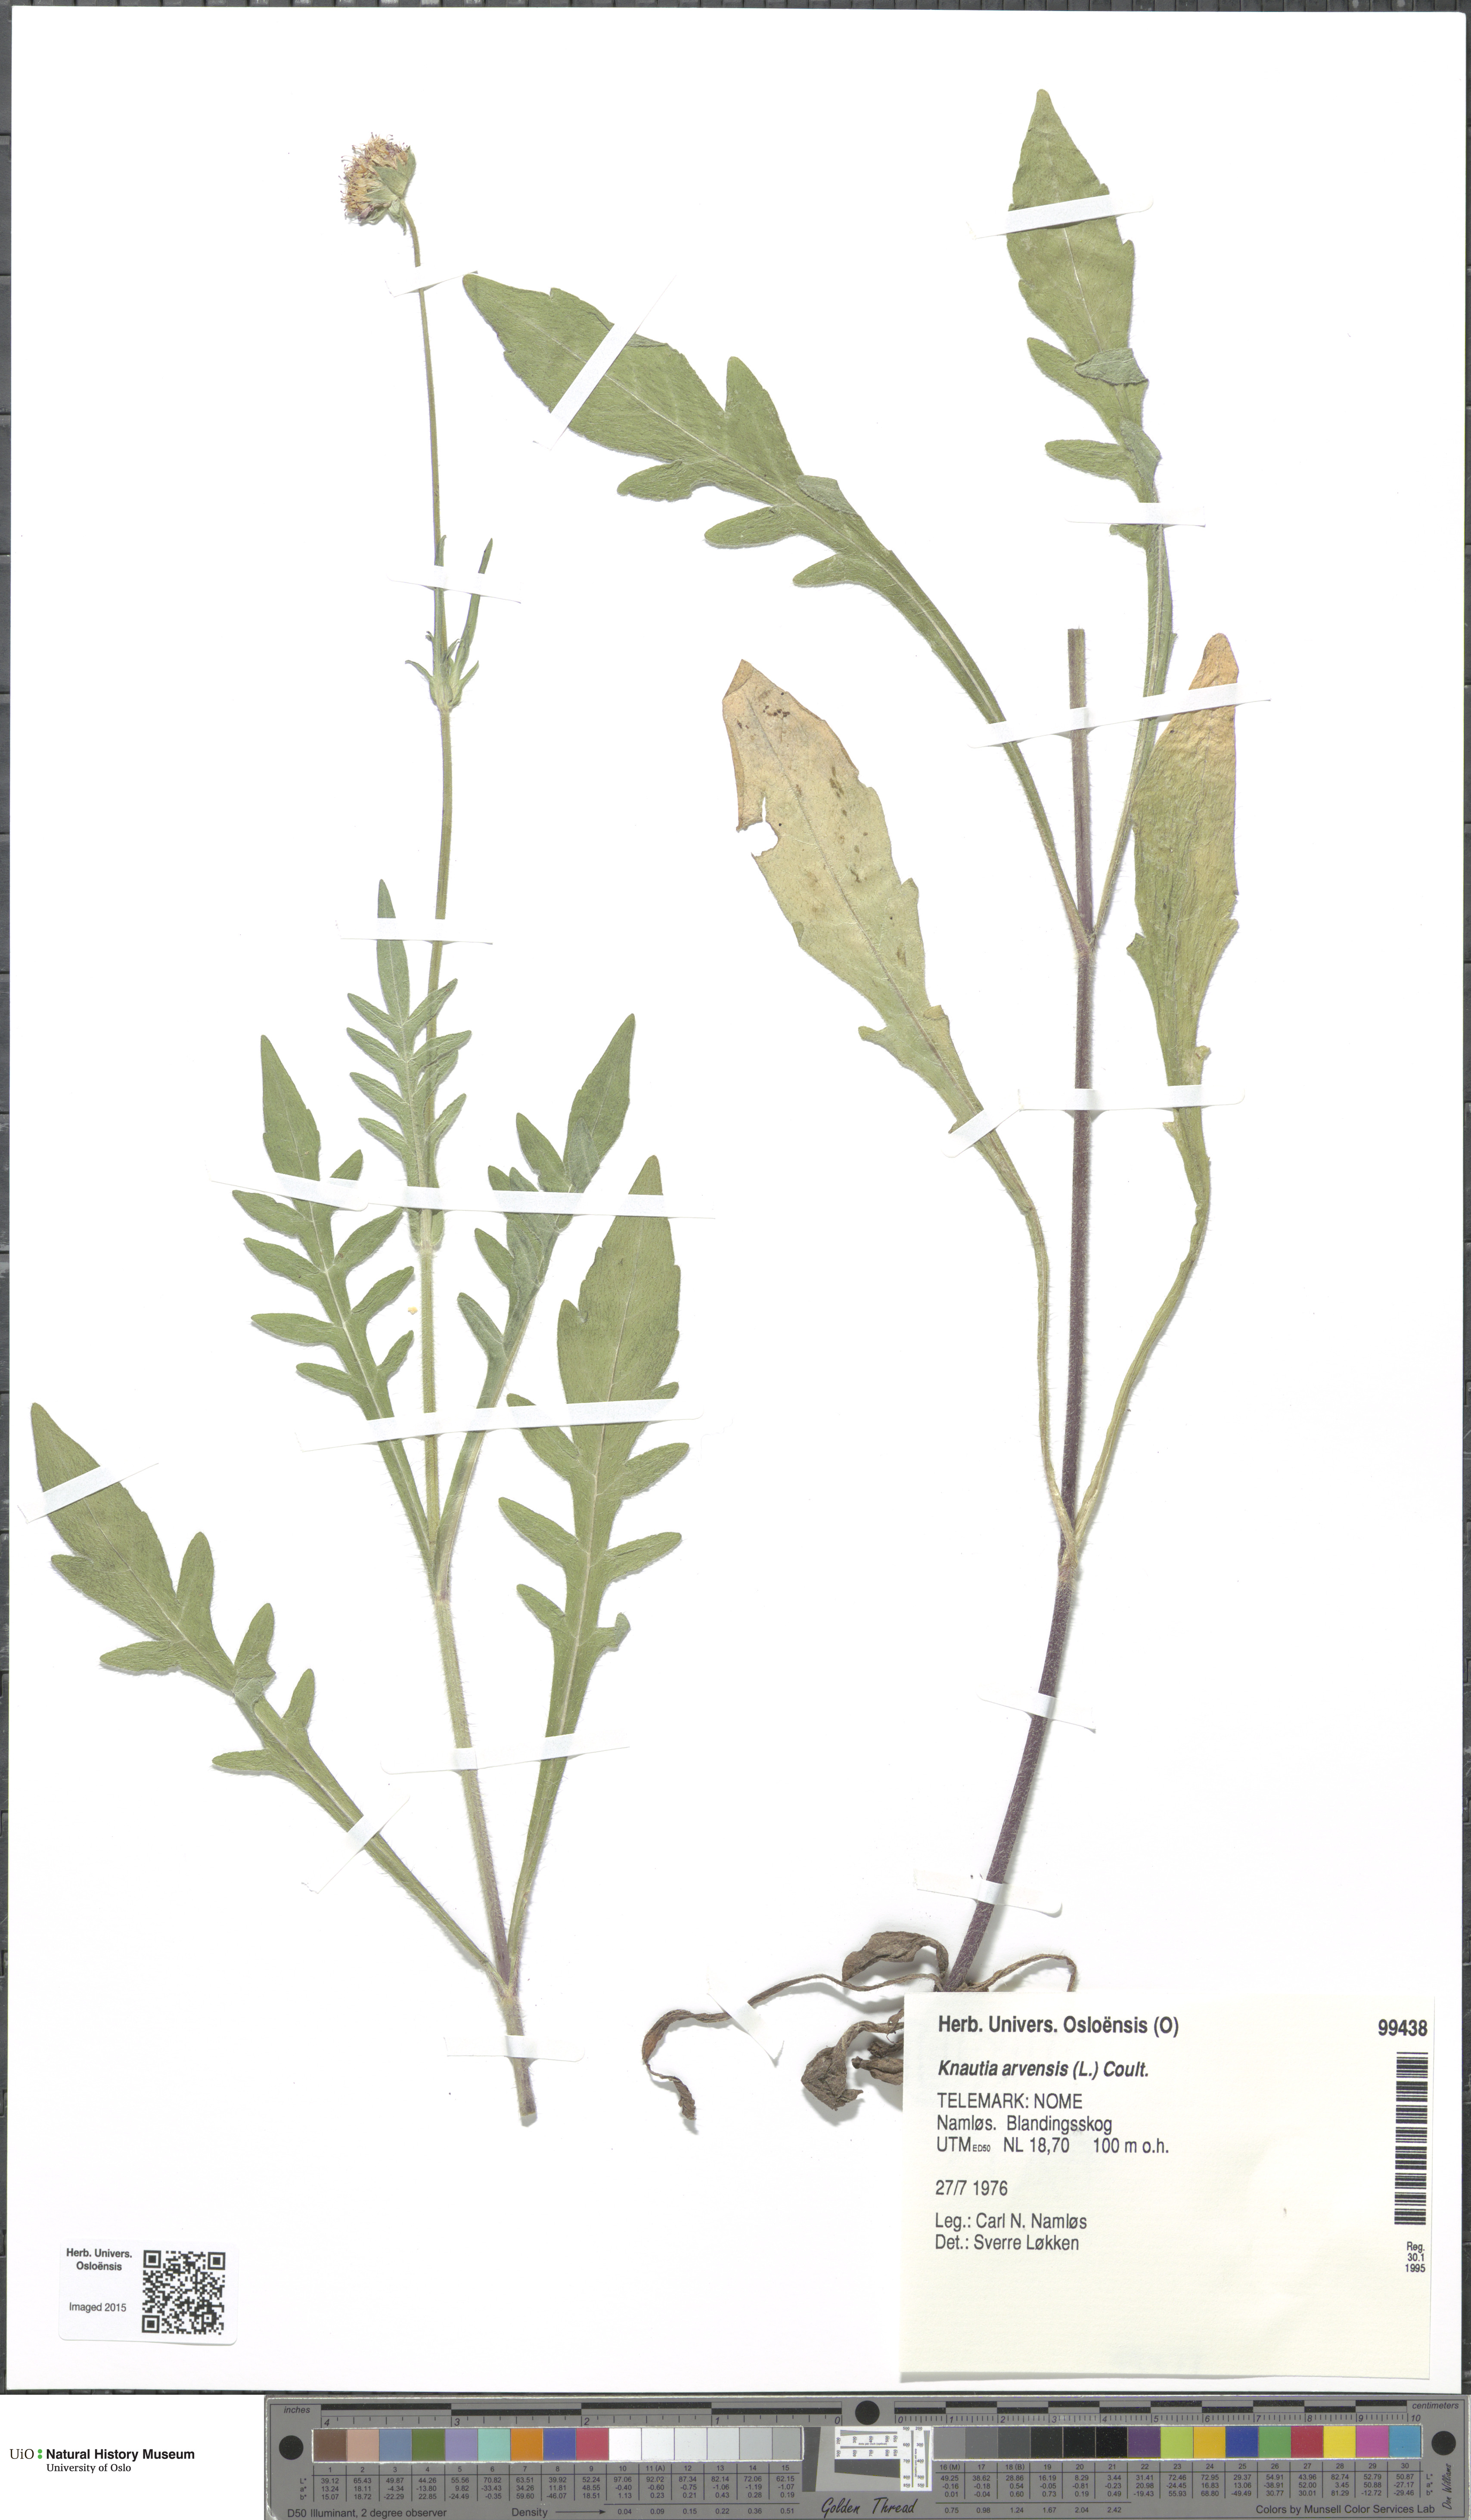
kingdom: Plantae
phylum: Tracheophyta
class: Magnoliopsida
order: Dipsacales
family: Caprifoliaceae
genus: Knautia
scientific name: Knautia arvensis
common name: Field scabiosa
